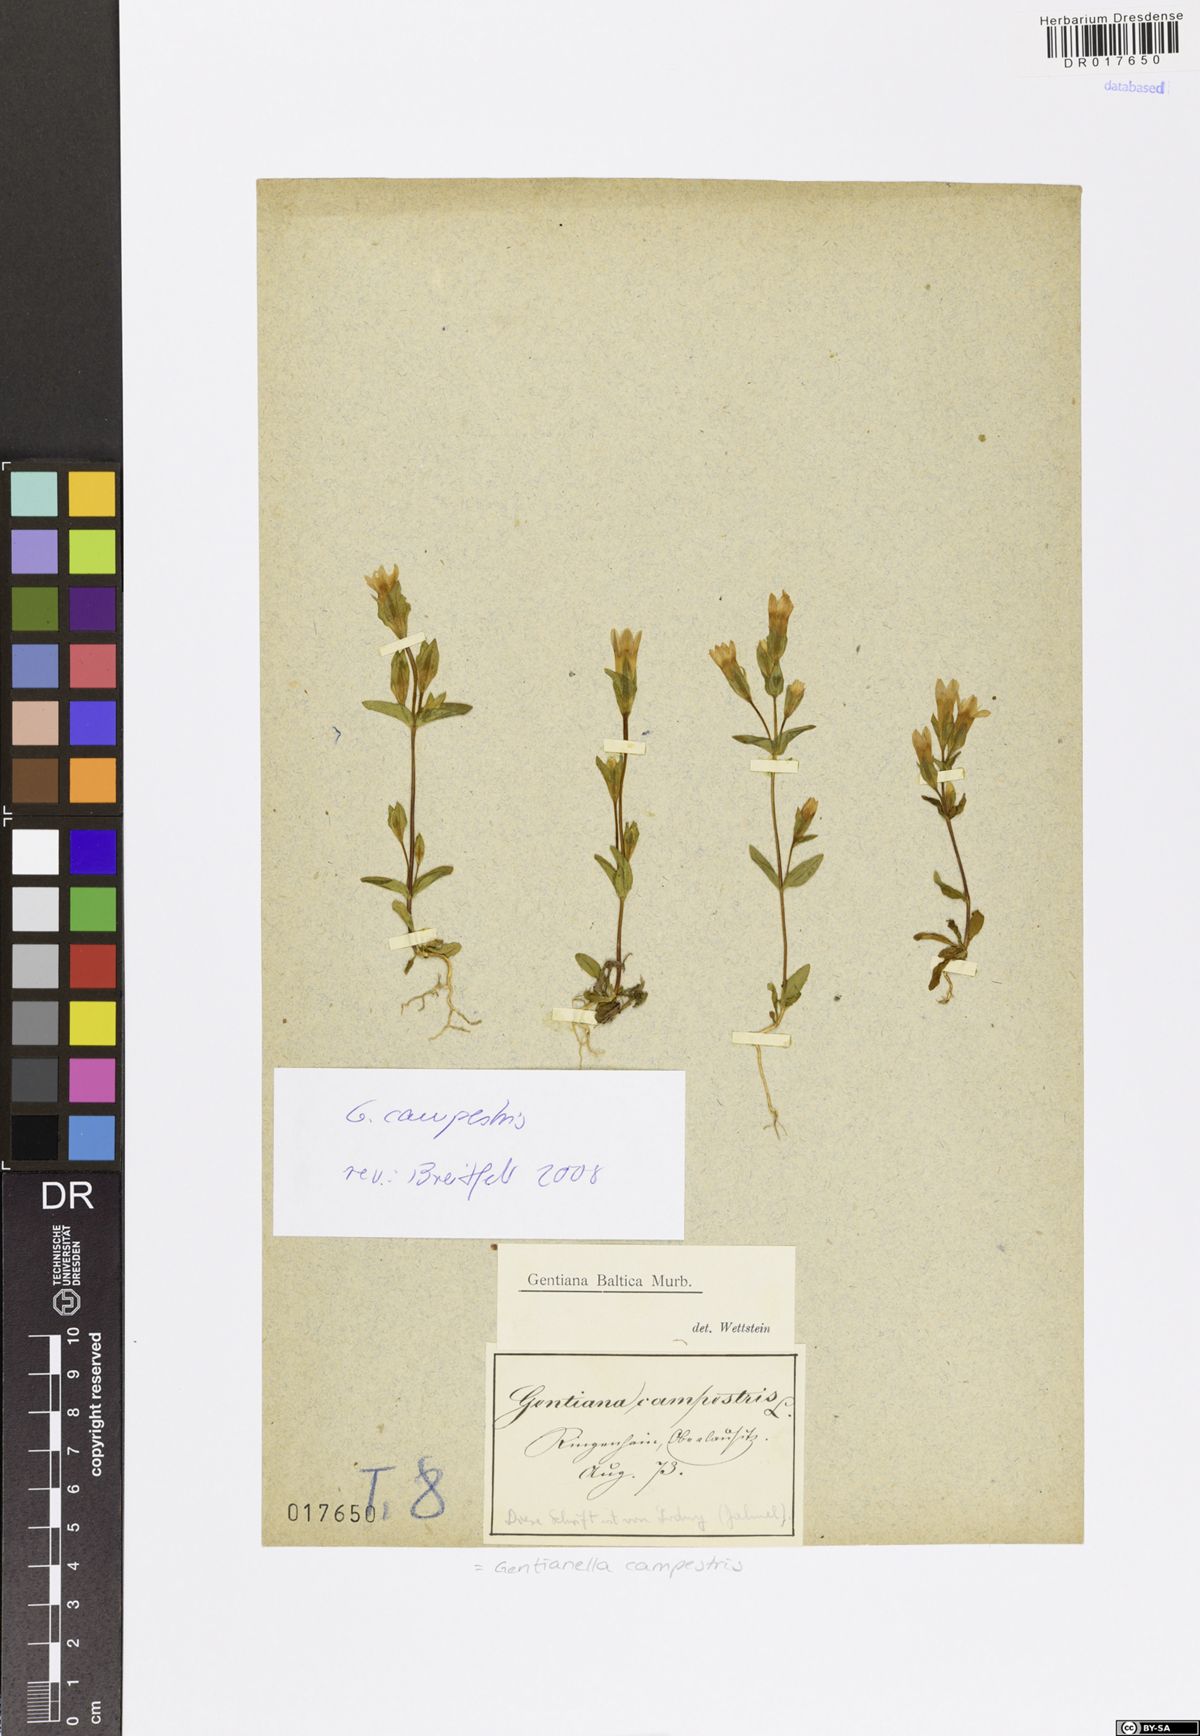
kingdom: Plantae
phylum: Tracheophyta
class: Magnoliopsida
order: Gentianales
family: Gentianaceae
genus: Gentianella
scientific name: Gentianella campestris
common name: Field gentian
